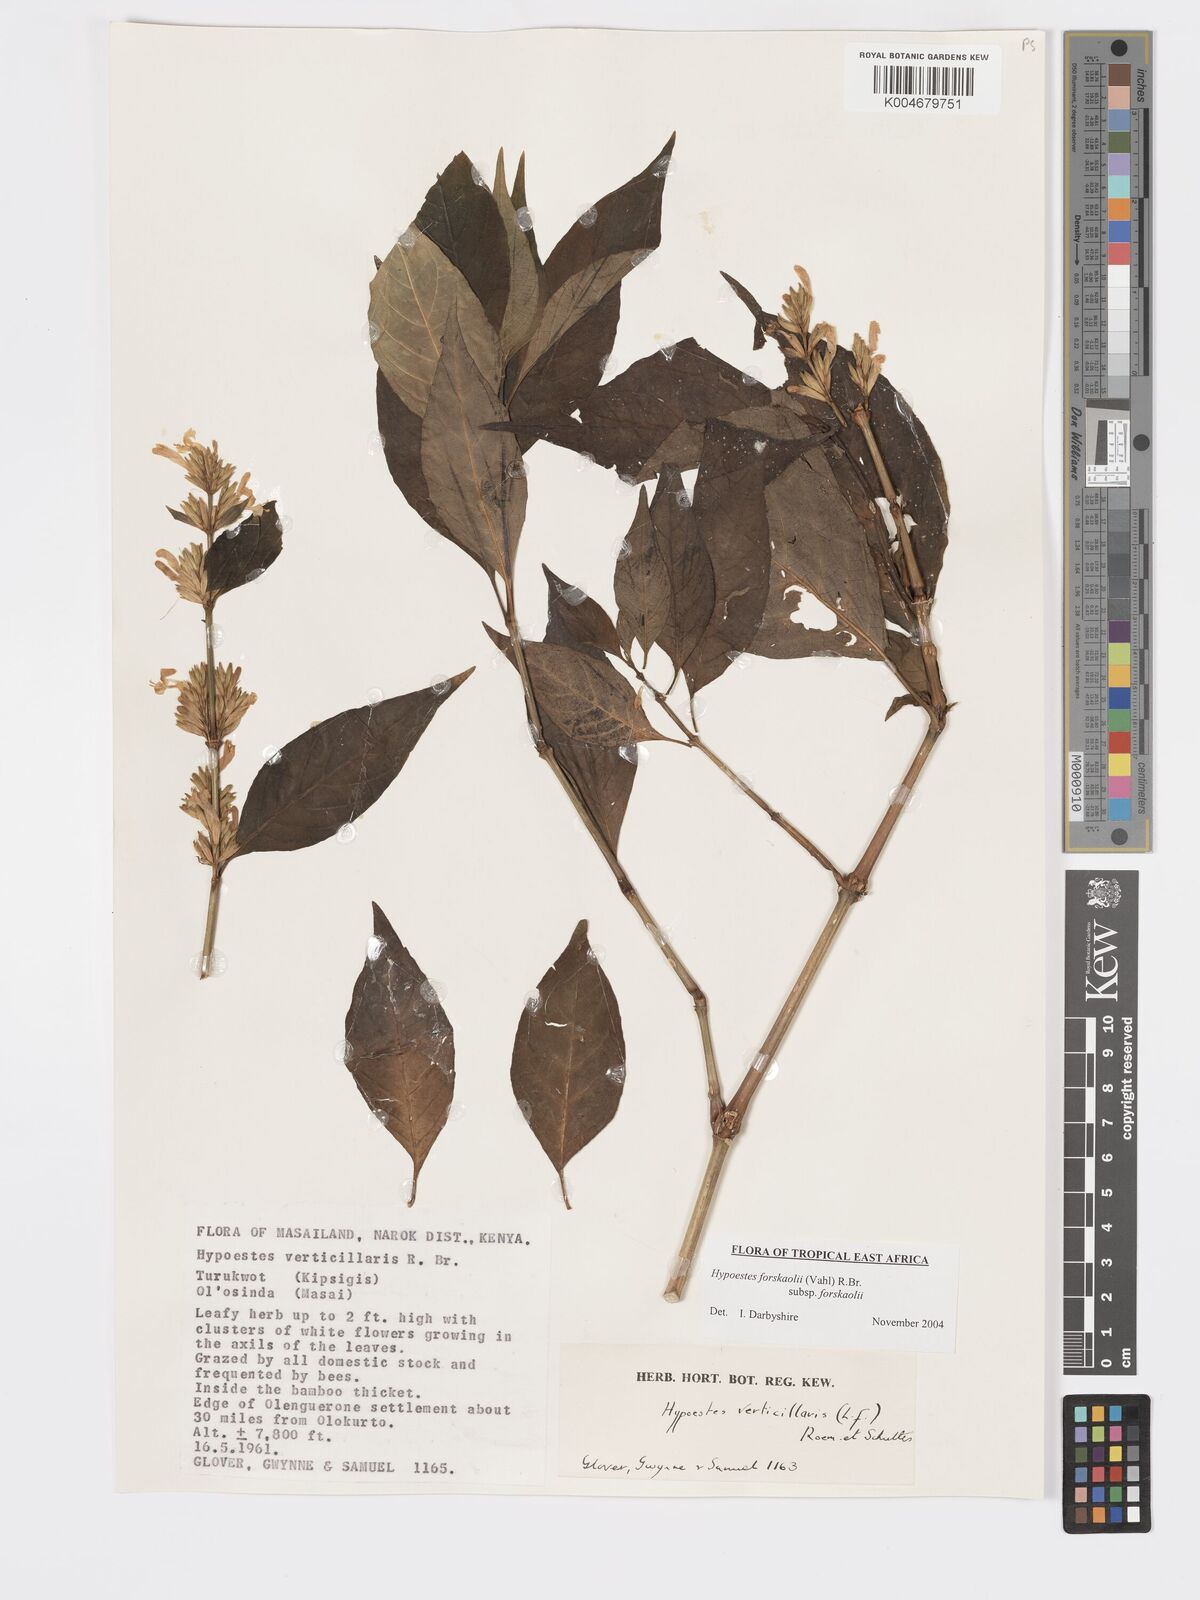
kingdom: Plantae
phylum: Tracheophyta
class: Magnoliopsida
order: Lamiales
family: Acanthaceae
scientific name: Acanthaceae
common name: Acanthaceae
